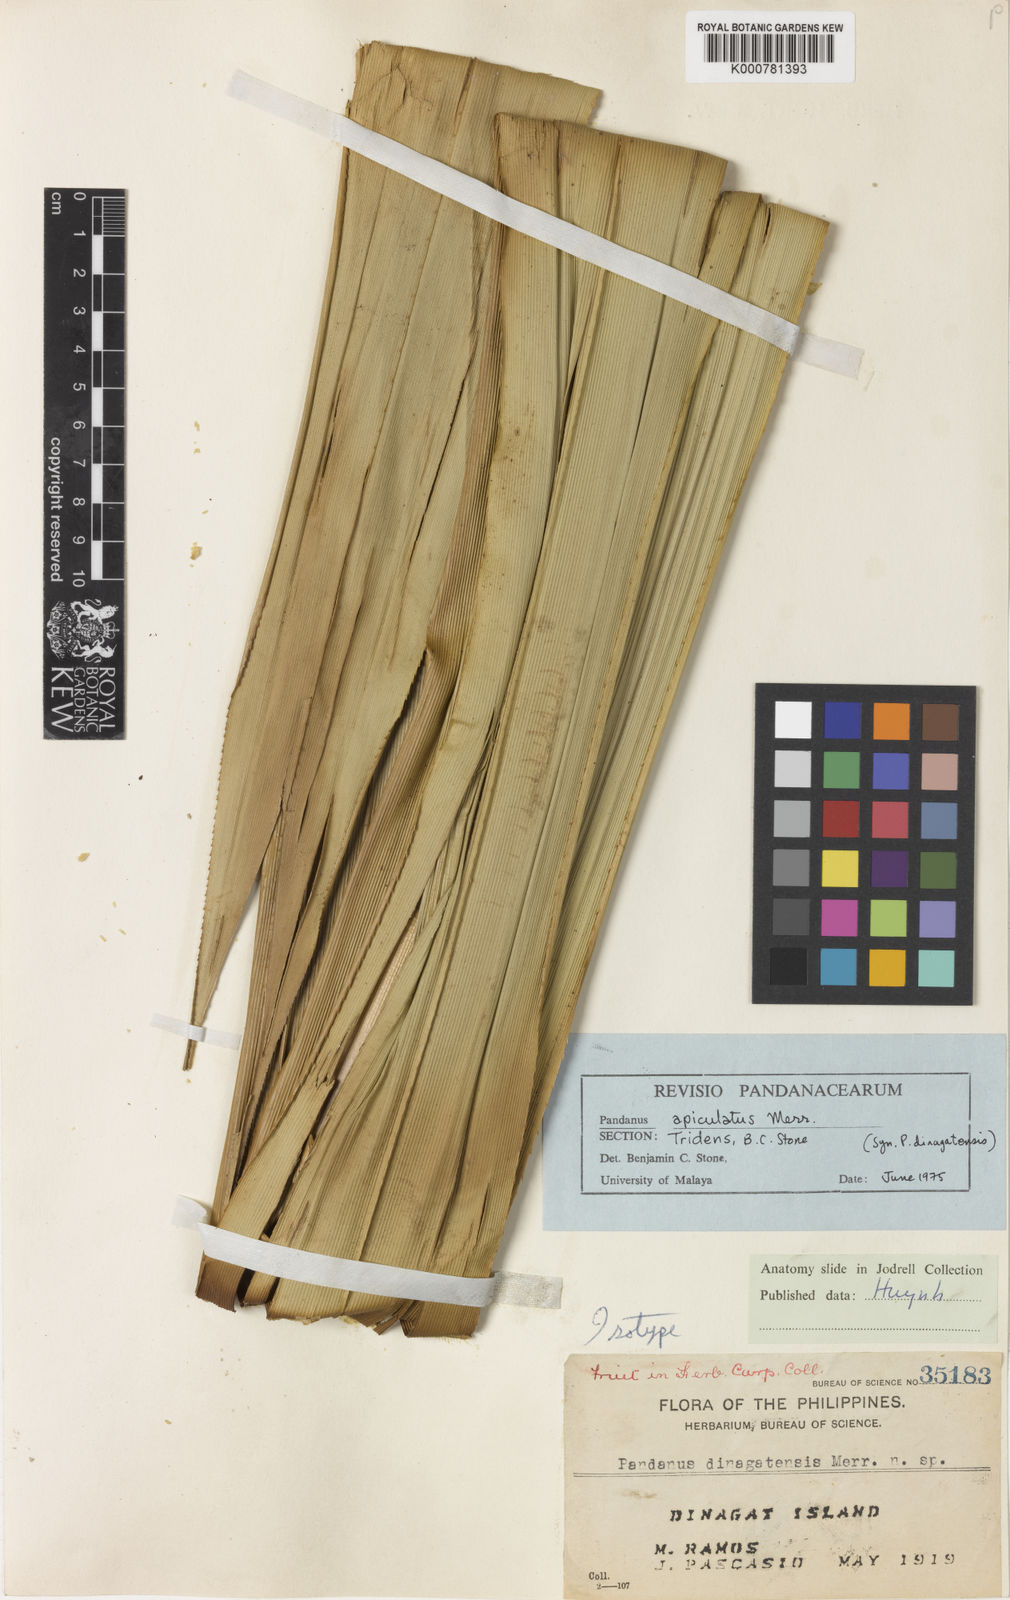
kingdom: Plantae
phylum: Tracheophyta
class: Liliopsida
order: Pandanales
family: Pandanaceae
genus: Pandanus
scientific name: Pandanus dinagatensis
